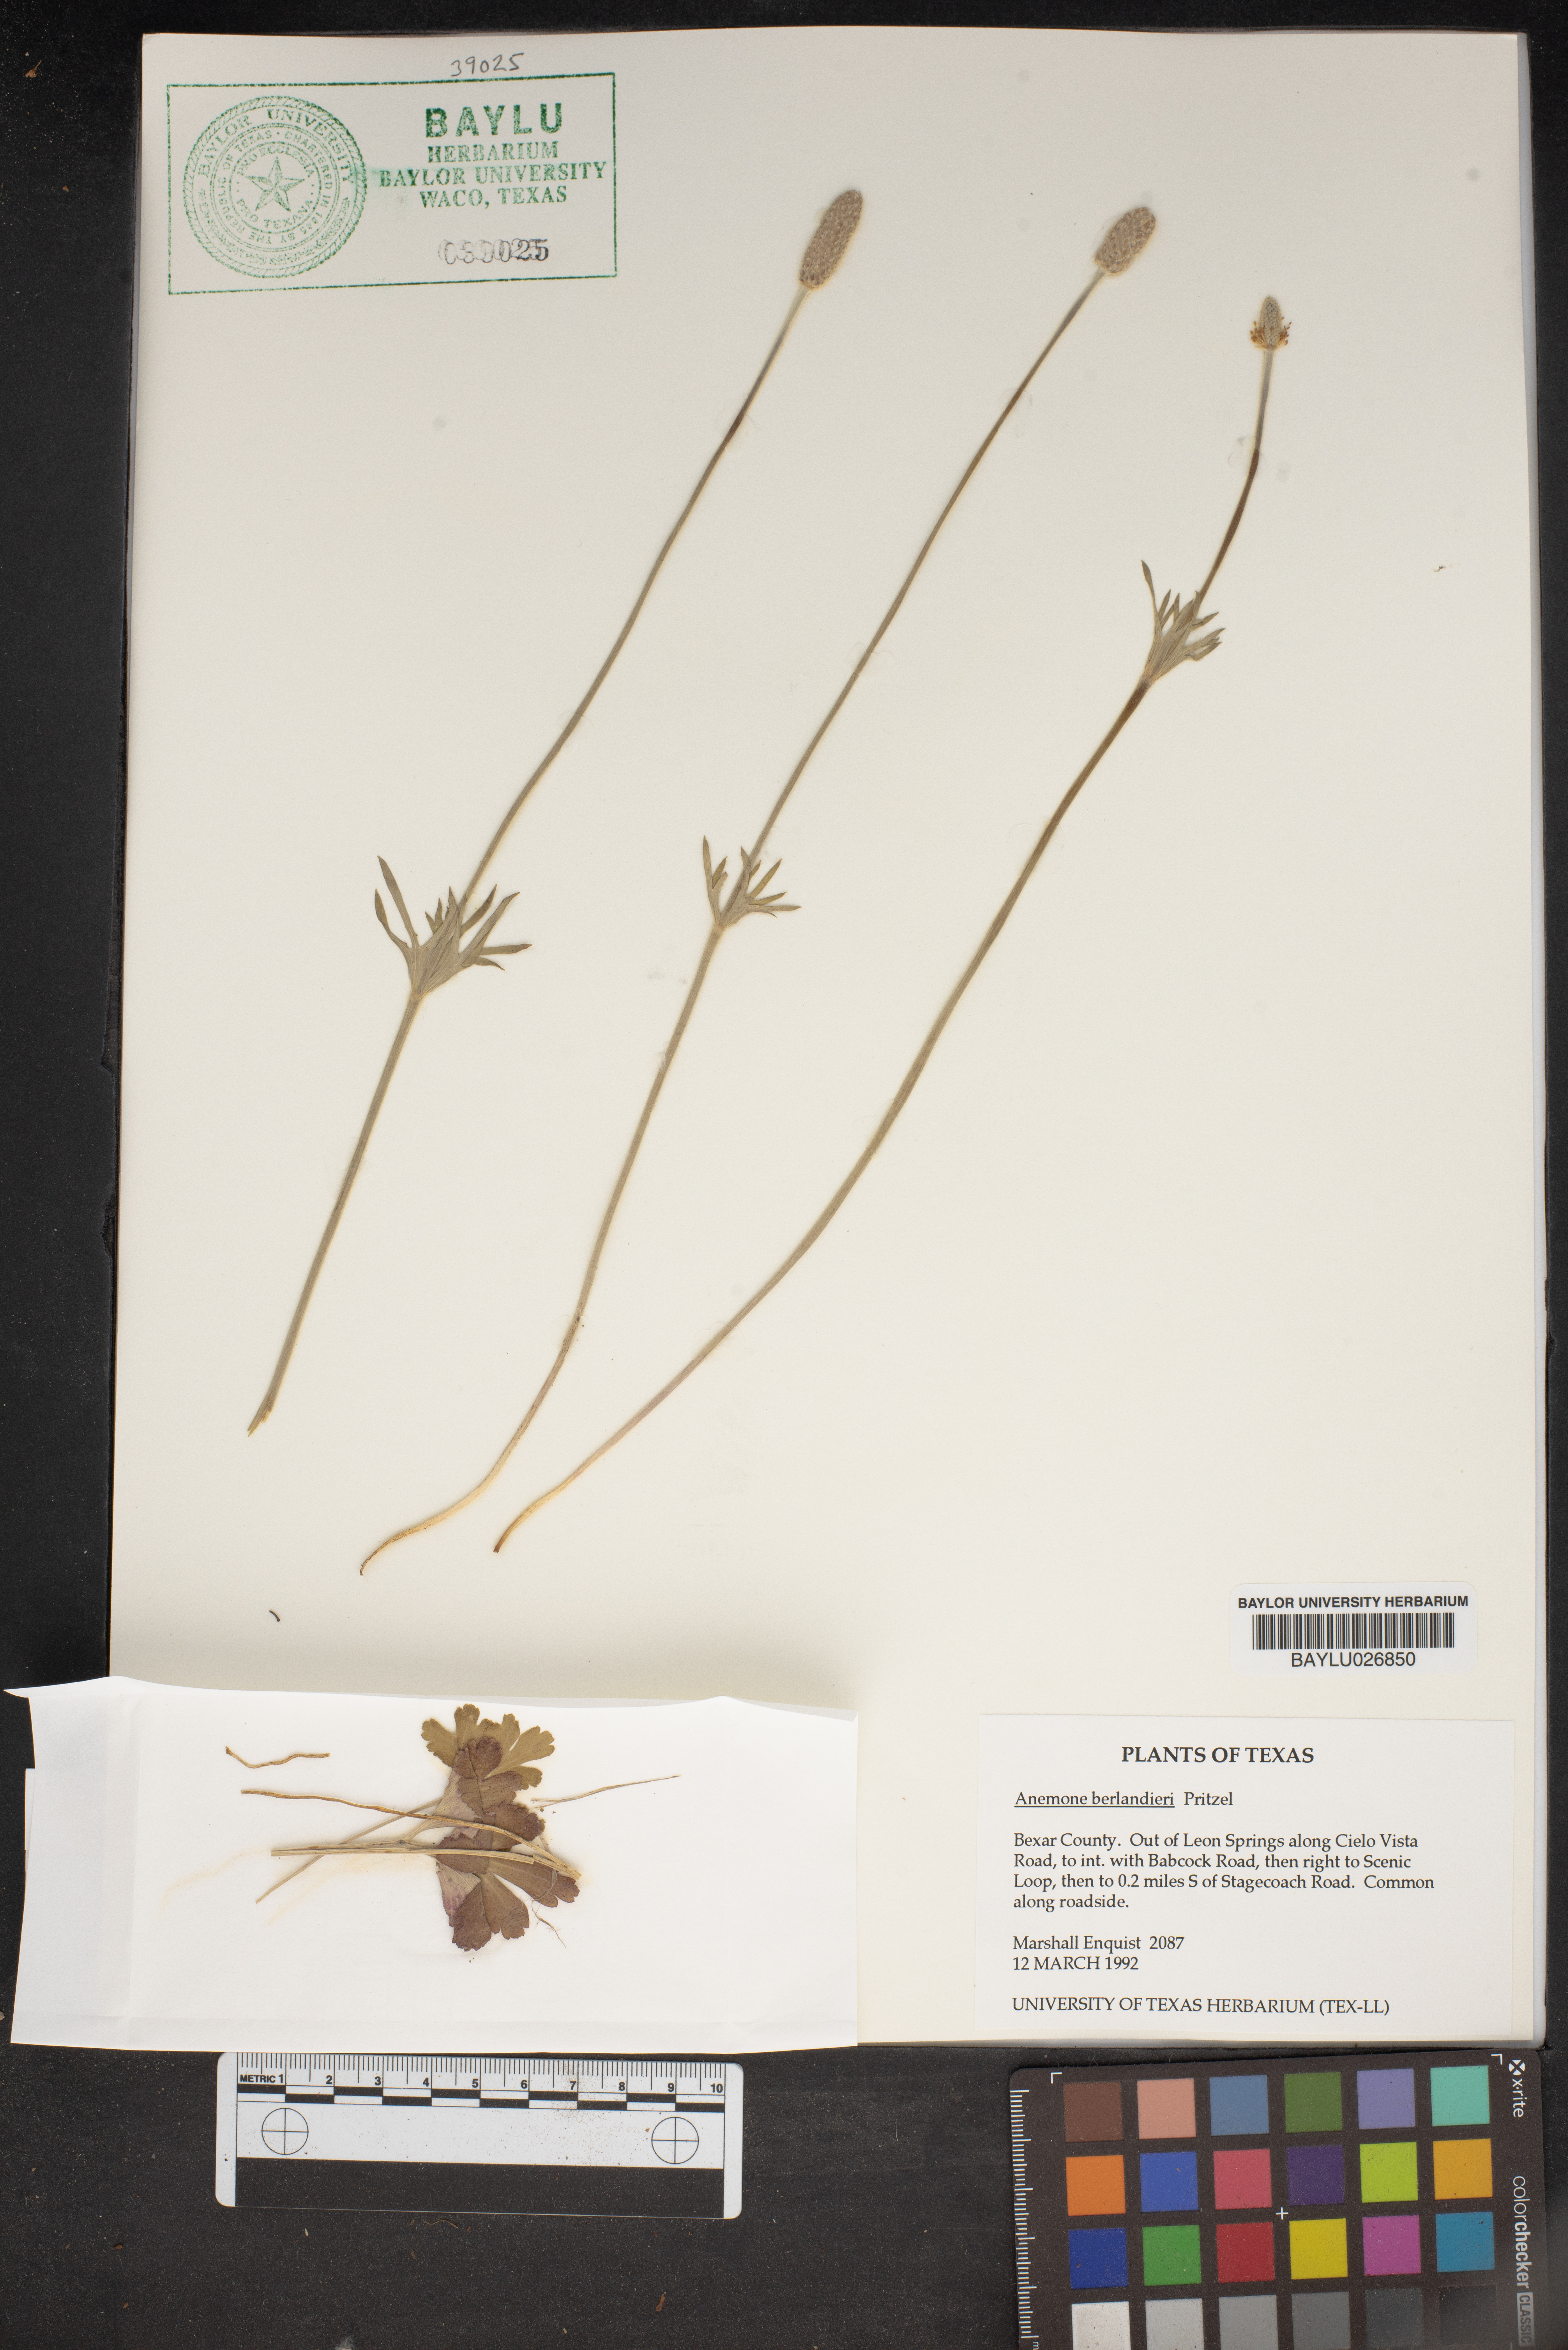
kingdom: Plantae
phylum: Tracheophyta
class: Magnoliopsida
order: Ranunculales
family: Ranunculaceae
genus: Anemone
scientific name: Anemone berlandieri
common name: Ten-petal anemone
